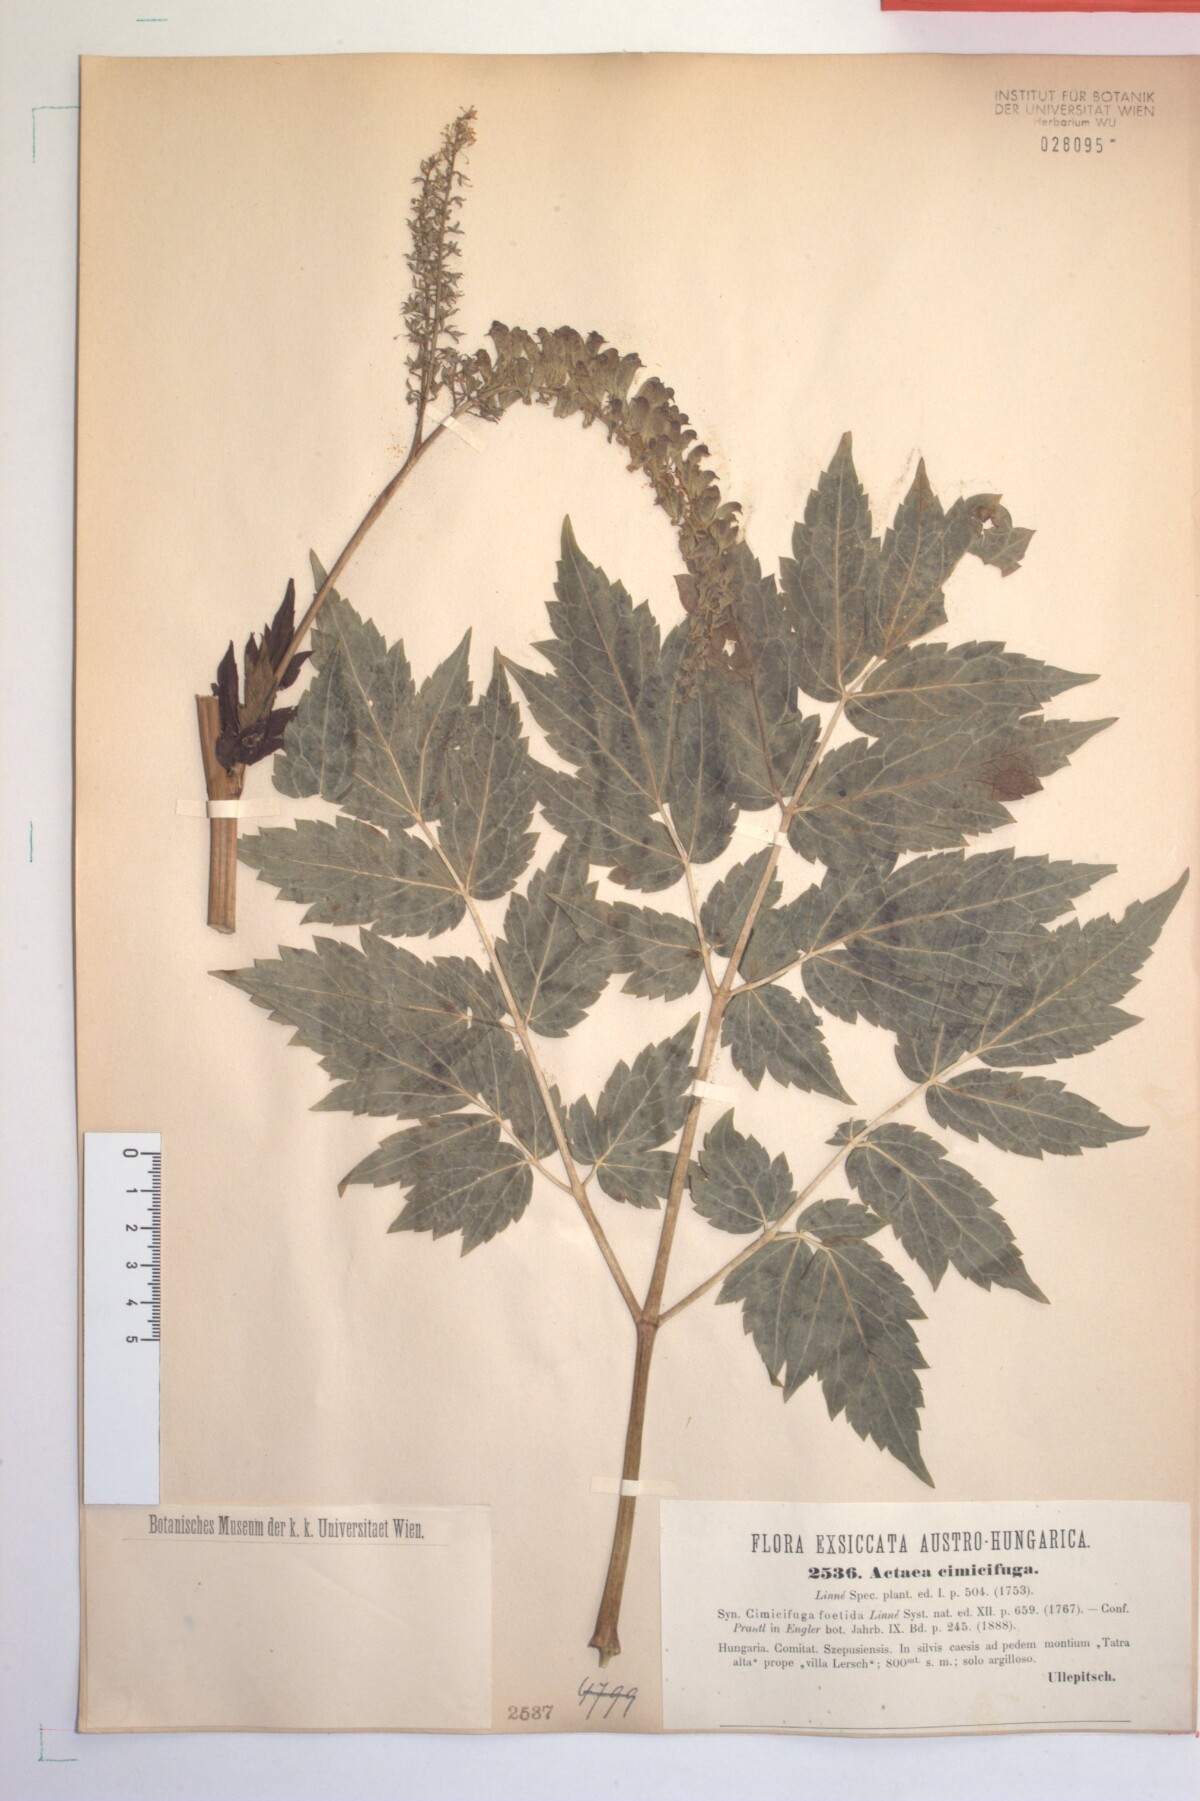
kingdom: Plantae
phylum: Tracheophyta
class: Magnoliopsida
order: Ranunculales
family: Ranunculaceae
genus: Actaea
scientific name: Actaea europaea
